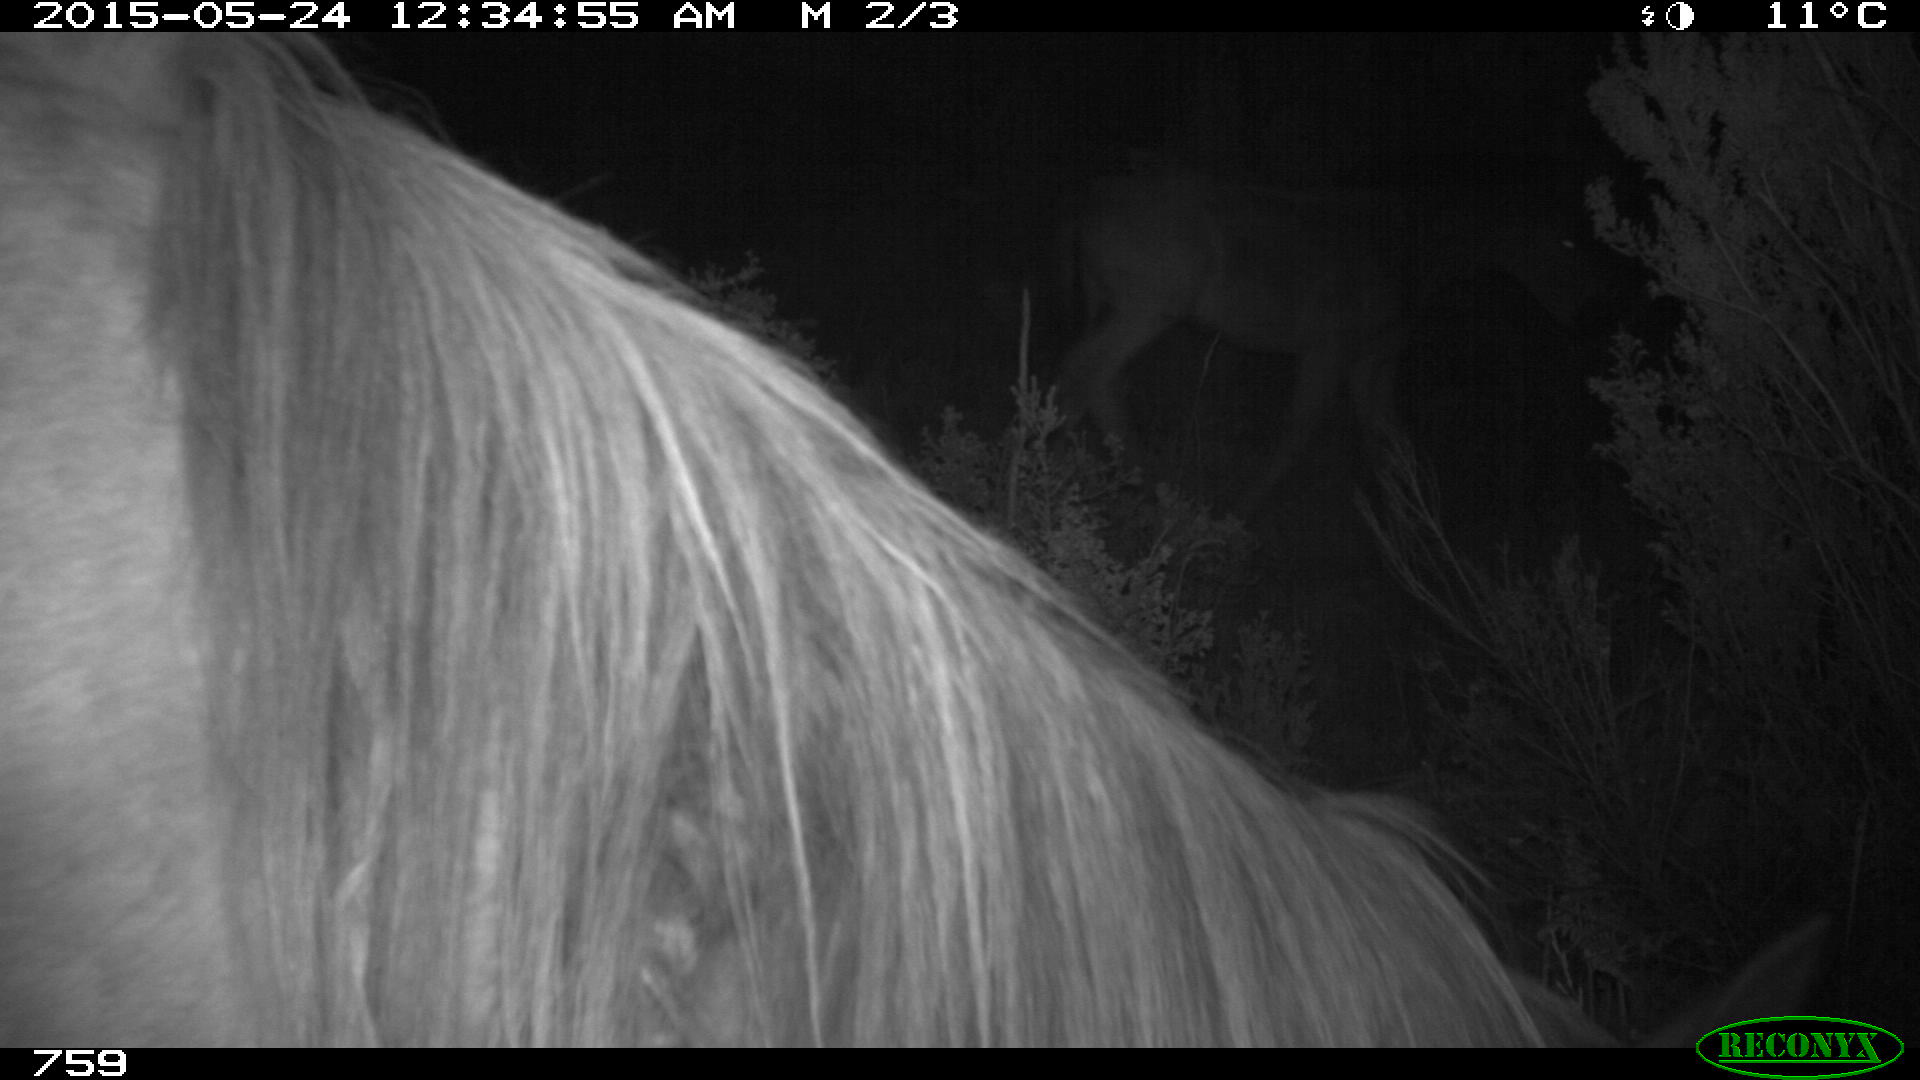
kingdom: Animalia
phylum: Chordata
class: Mammalia
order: Perissodactyla
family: Equidae
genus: Equus
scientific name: Equus caballus
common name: Horse
